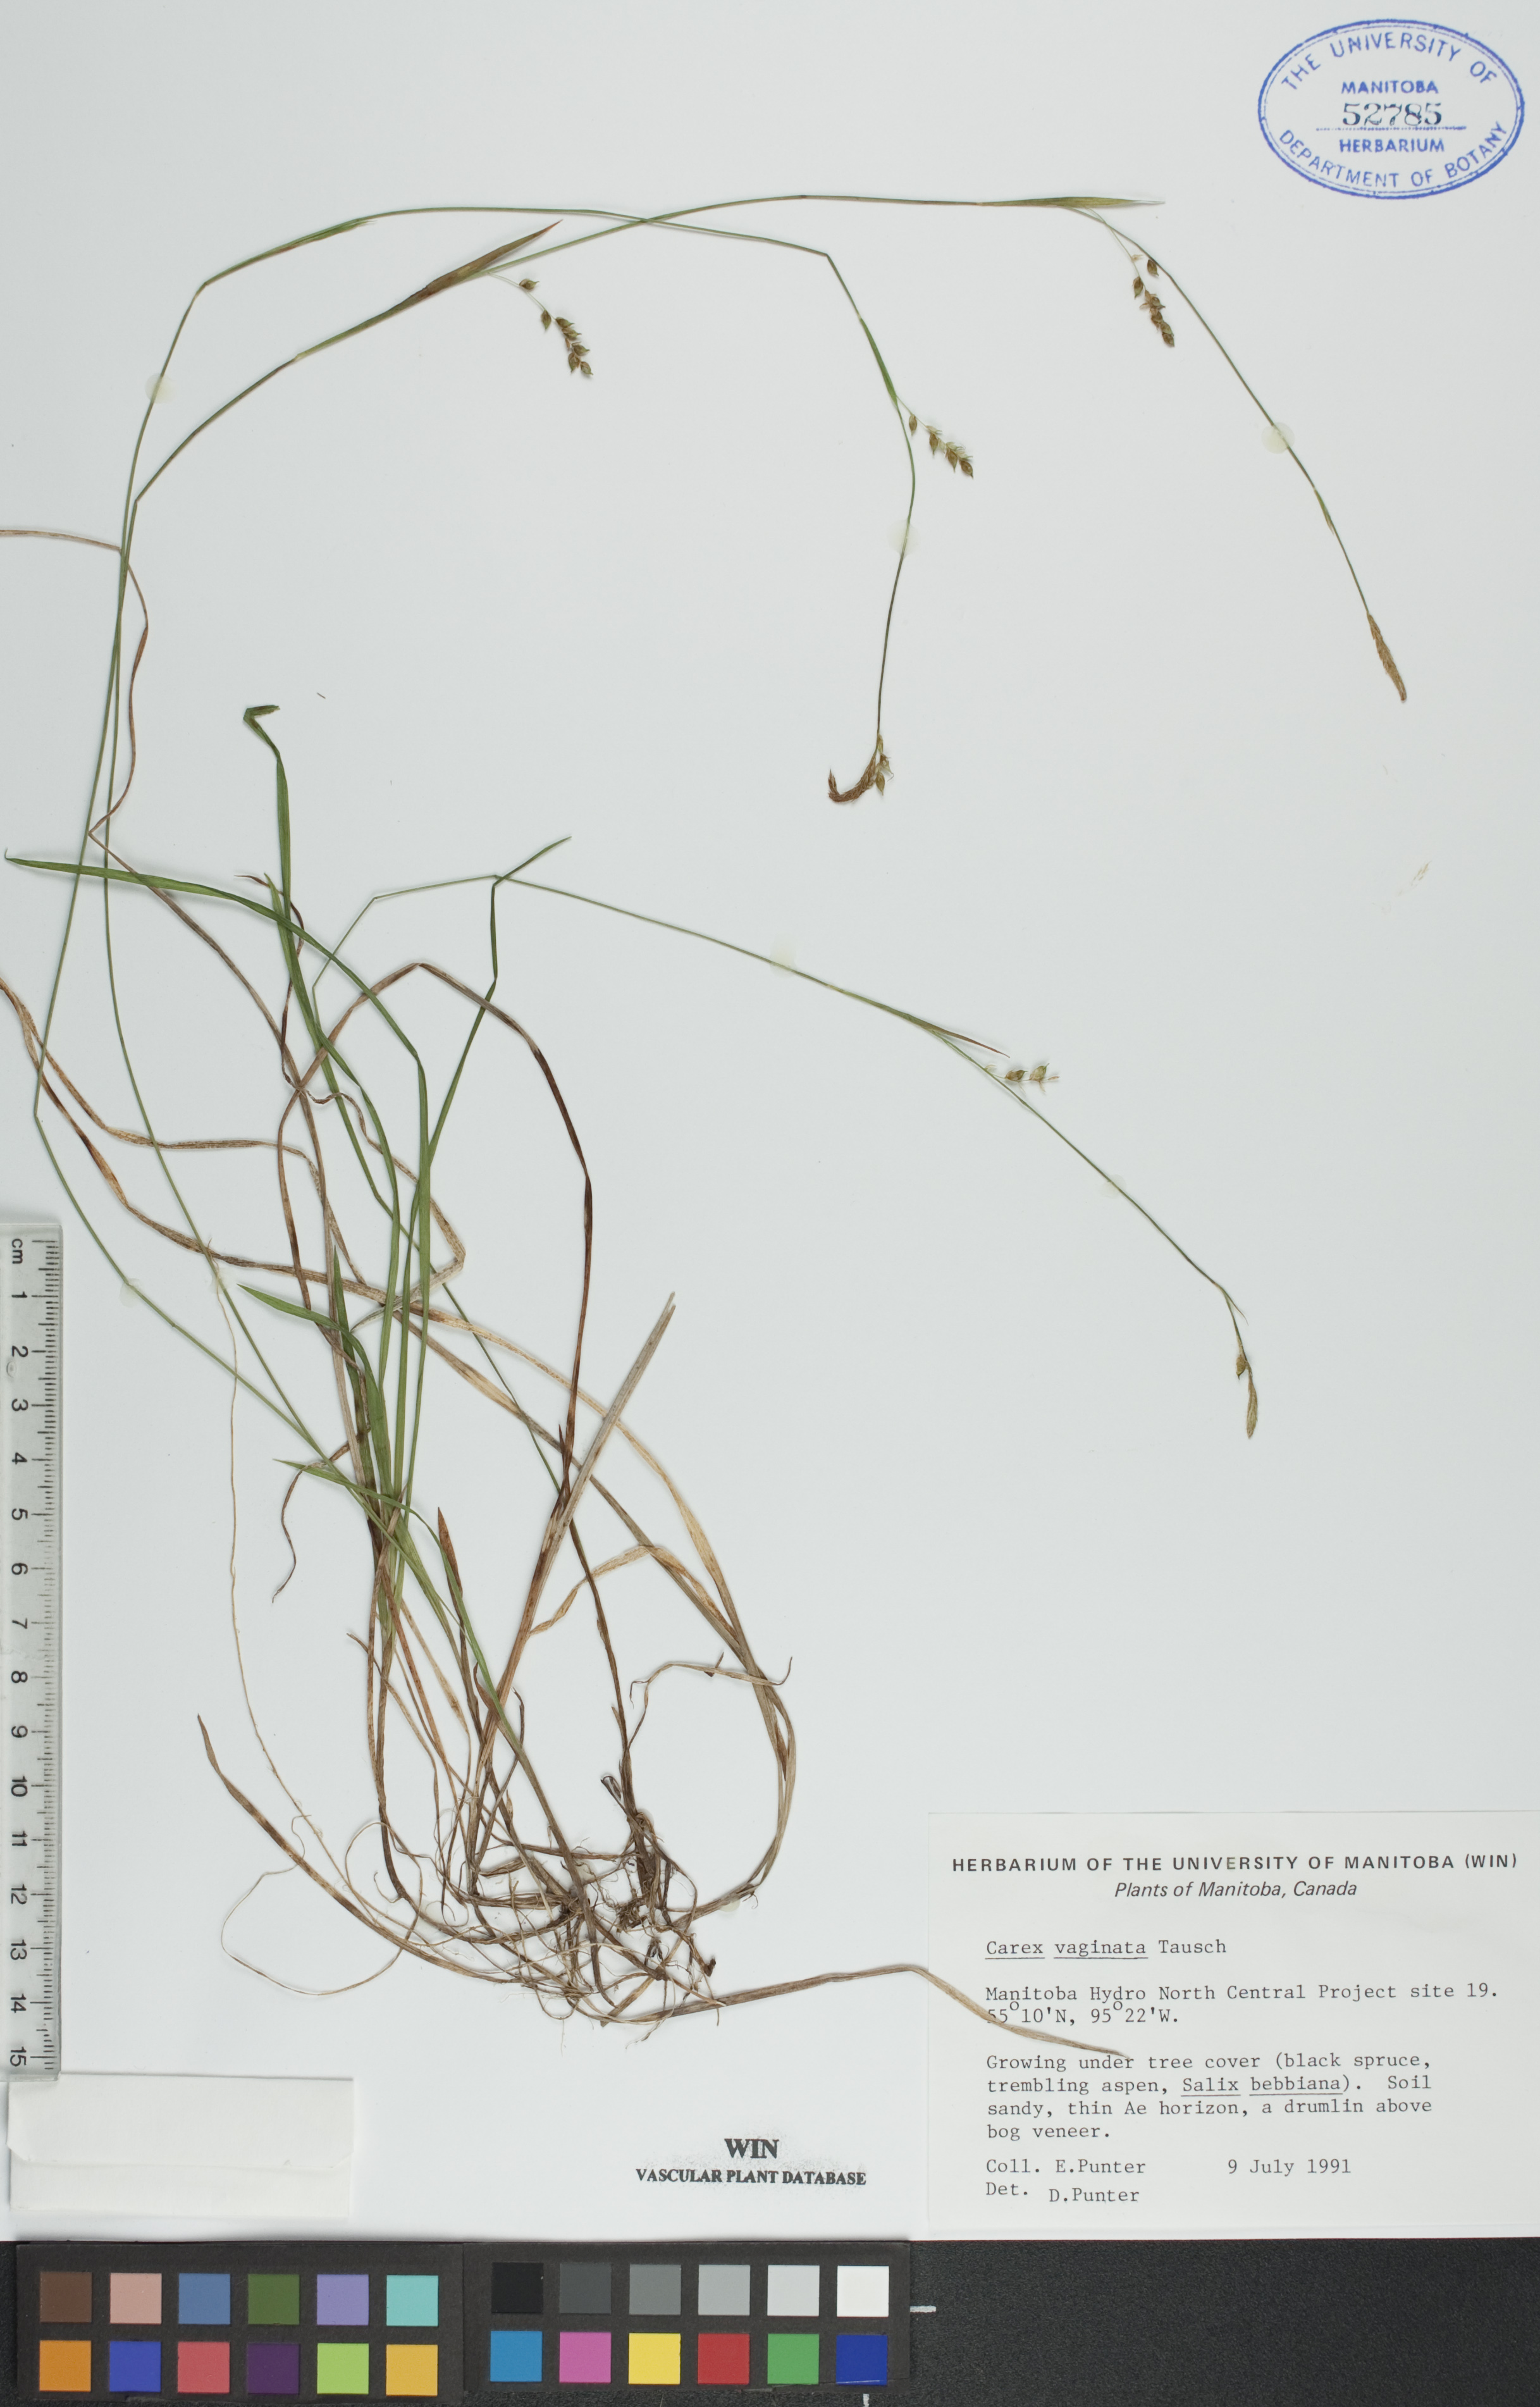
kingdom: Plantae
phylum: Tracheophyta
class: Liliopsida
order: Poales
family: Cyperaceae
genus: Carex
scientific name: Carex vaginata
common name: Sheathed sedge
